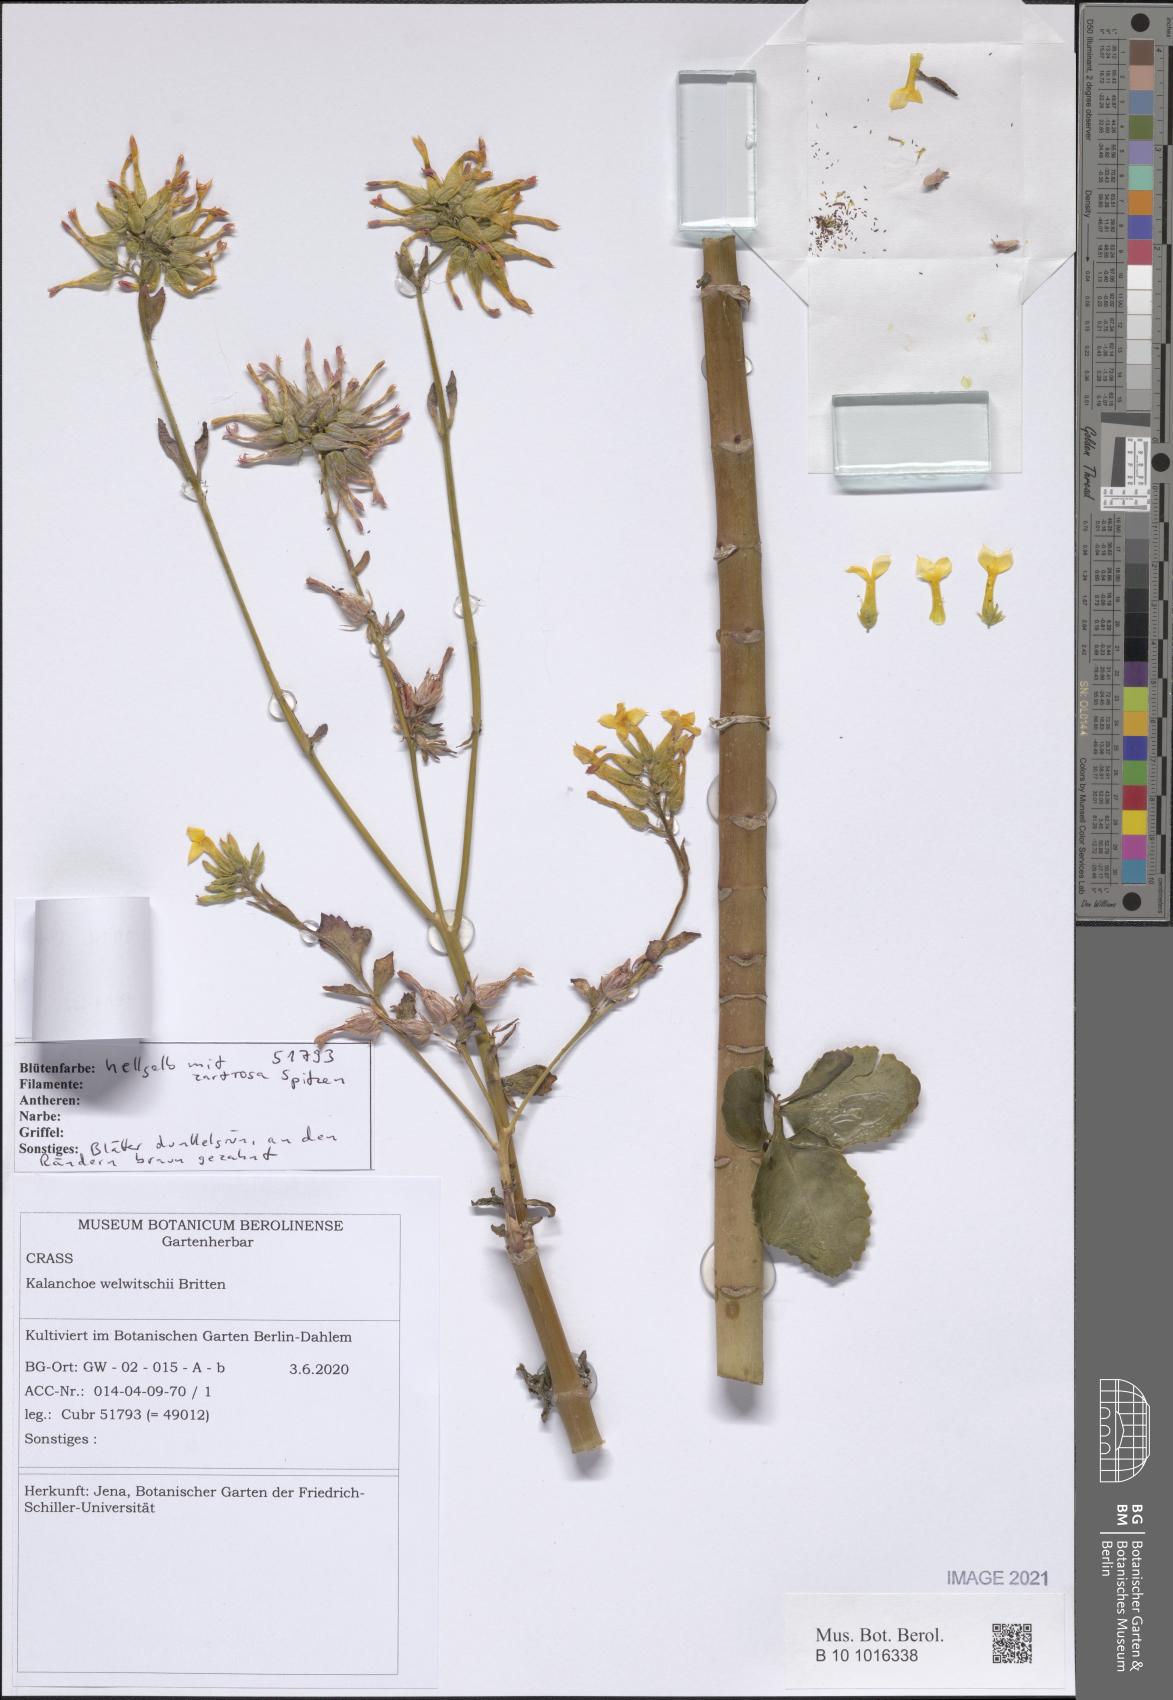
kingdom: Plantae
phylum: Tracheophyta
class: Magnoliopsida
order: Saxifragales
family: Crassulaceae
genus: Kalanchoe
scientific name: Kalanchoe crenata
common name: Neverdie
